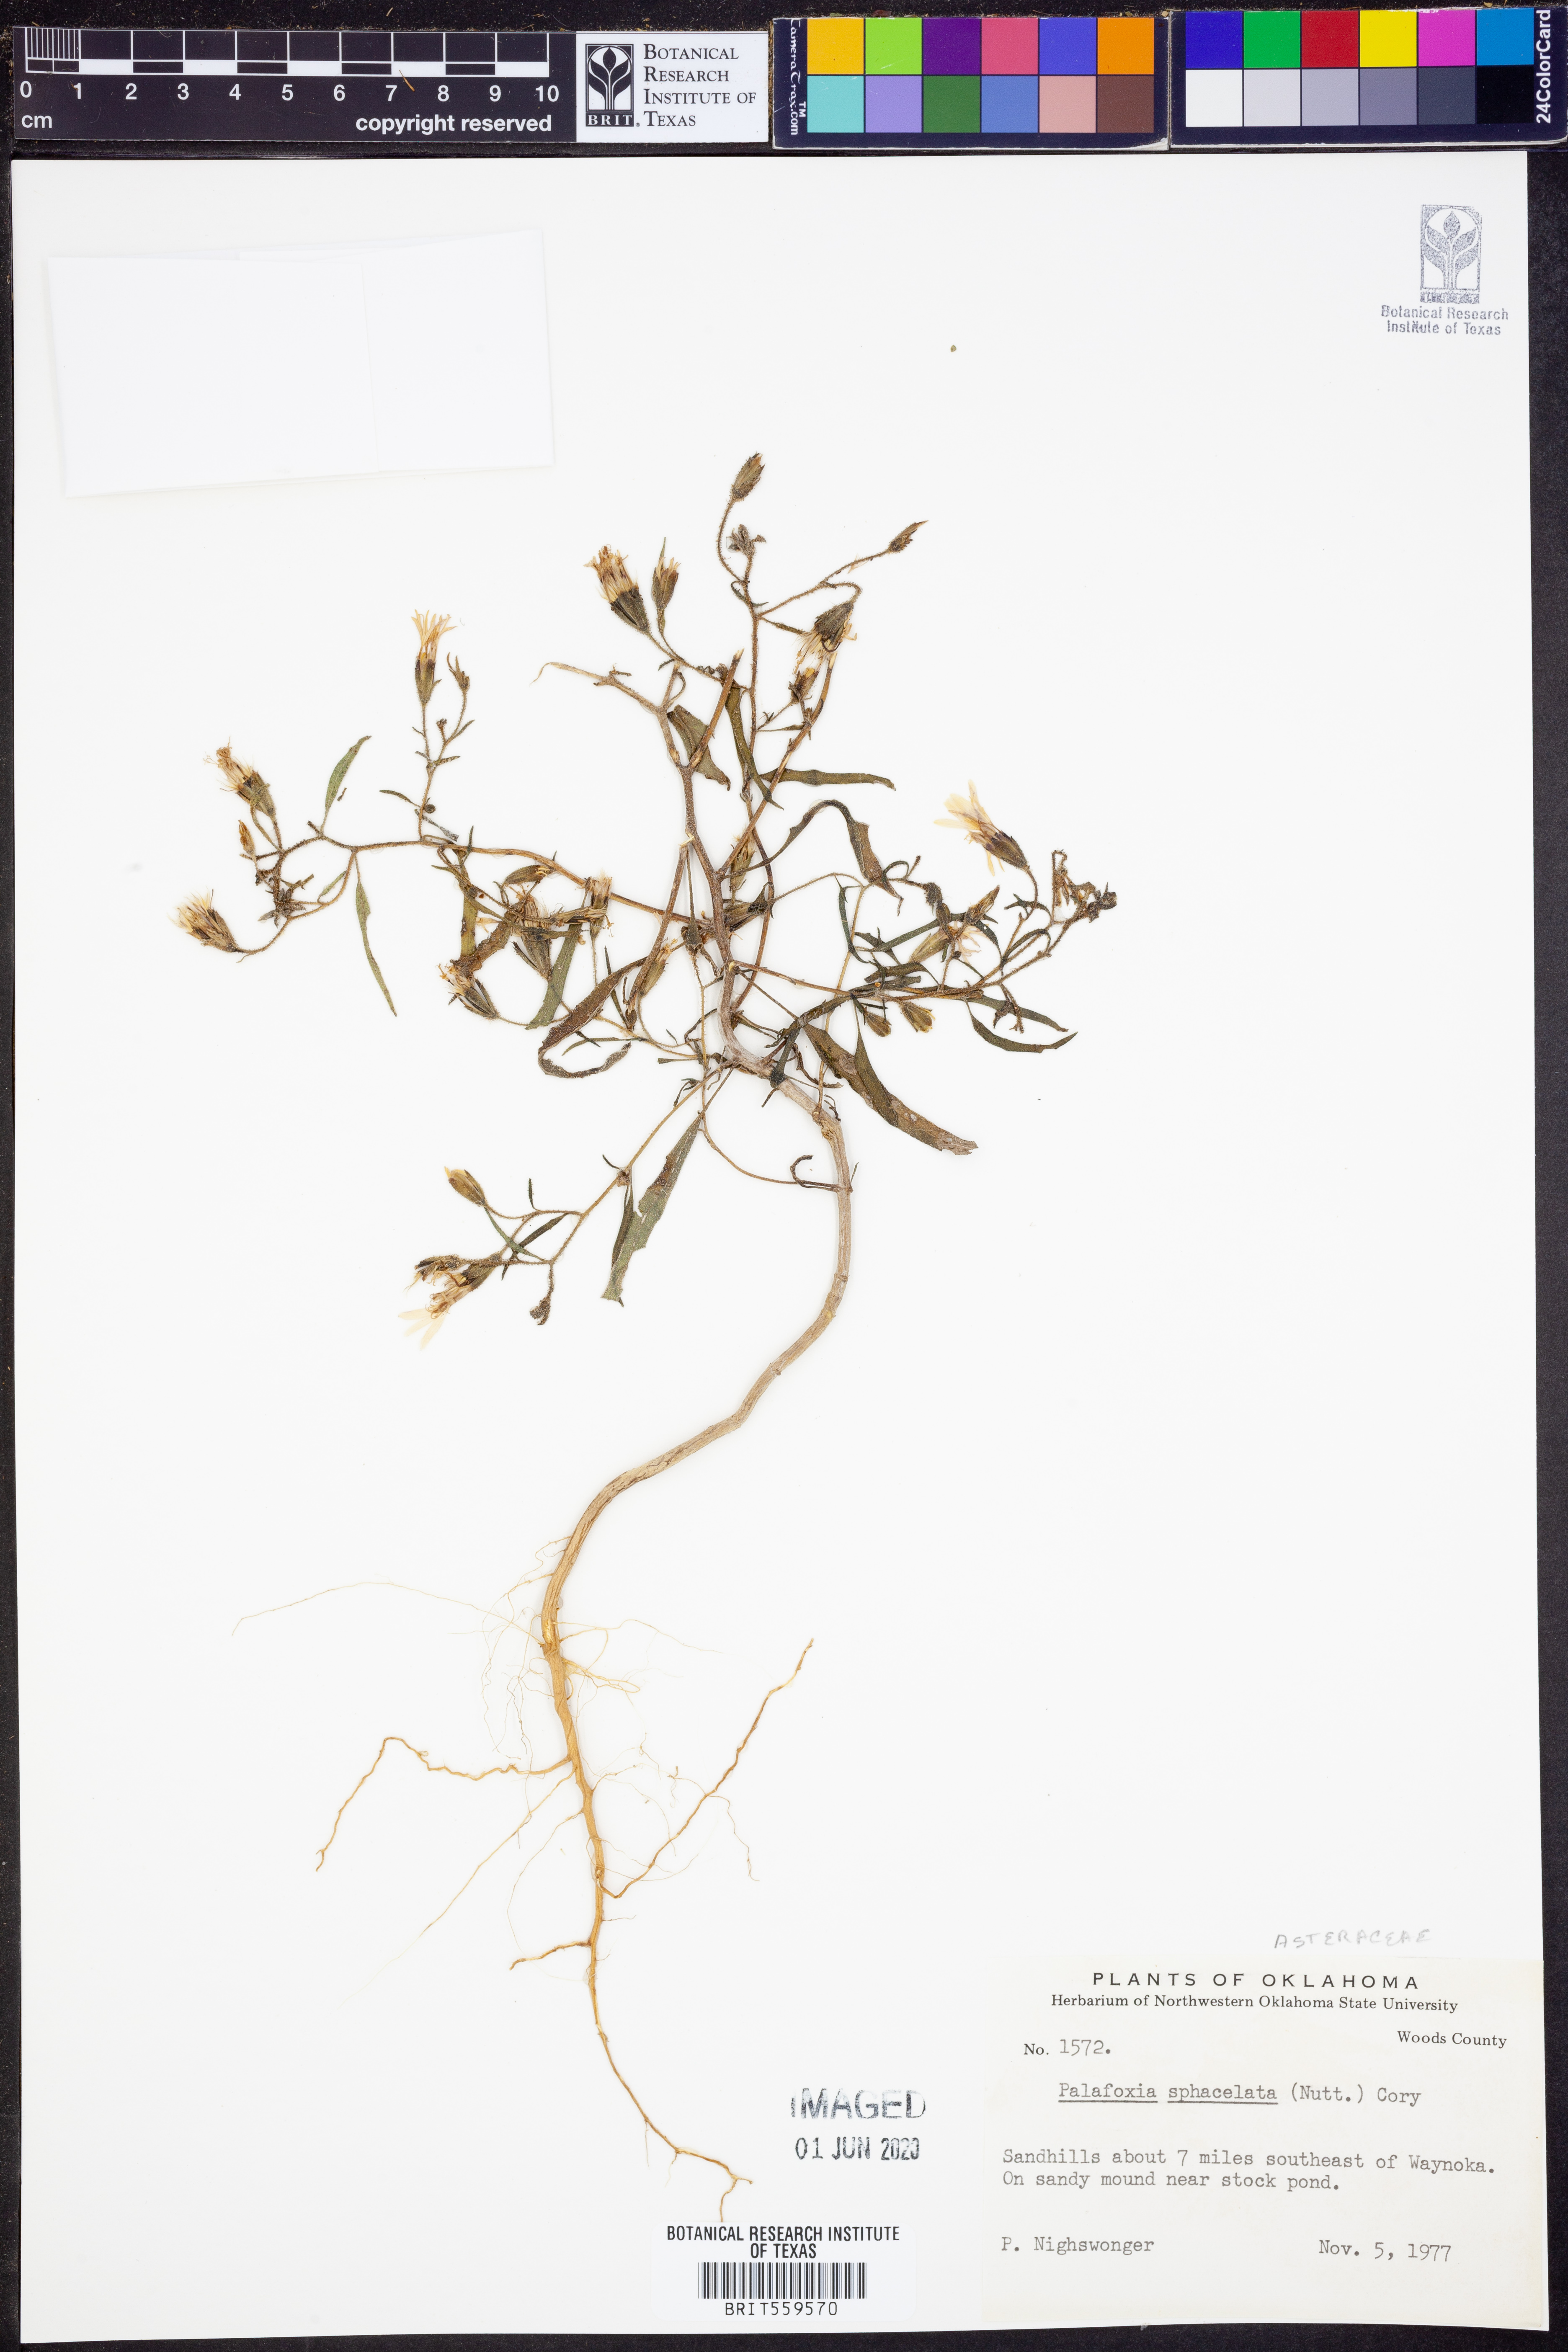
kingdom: Plantae
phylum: Tracheophyta
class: Magnoliopsida
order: Asterales
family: Asteraceae
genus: Palafoxia
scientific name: Palafoxia sphacelata
